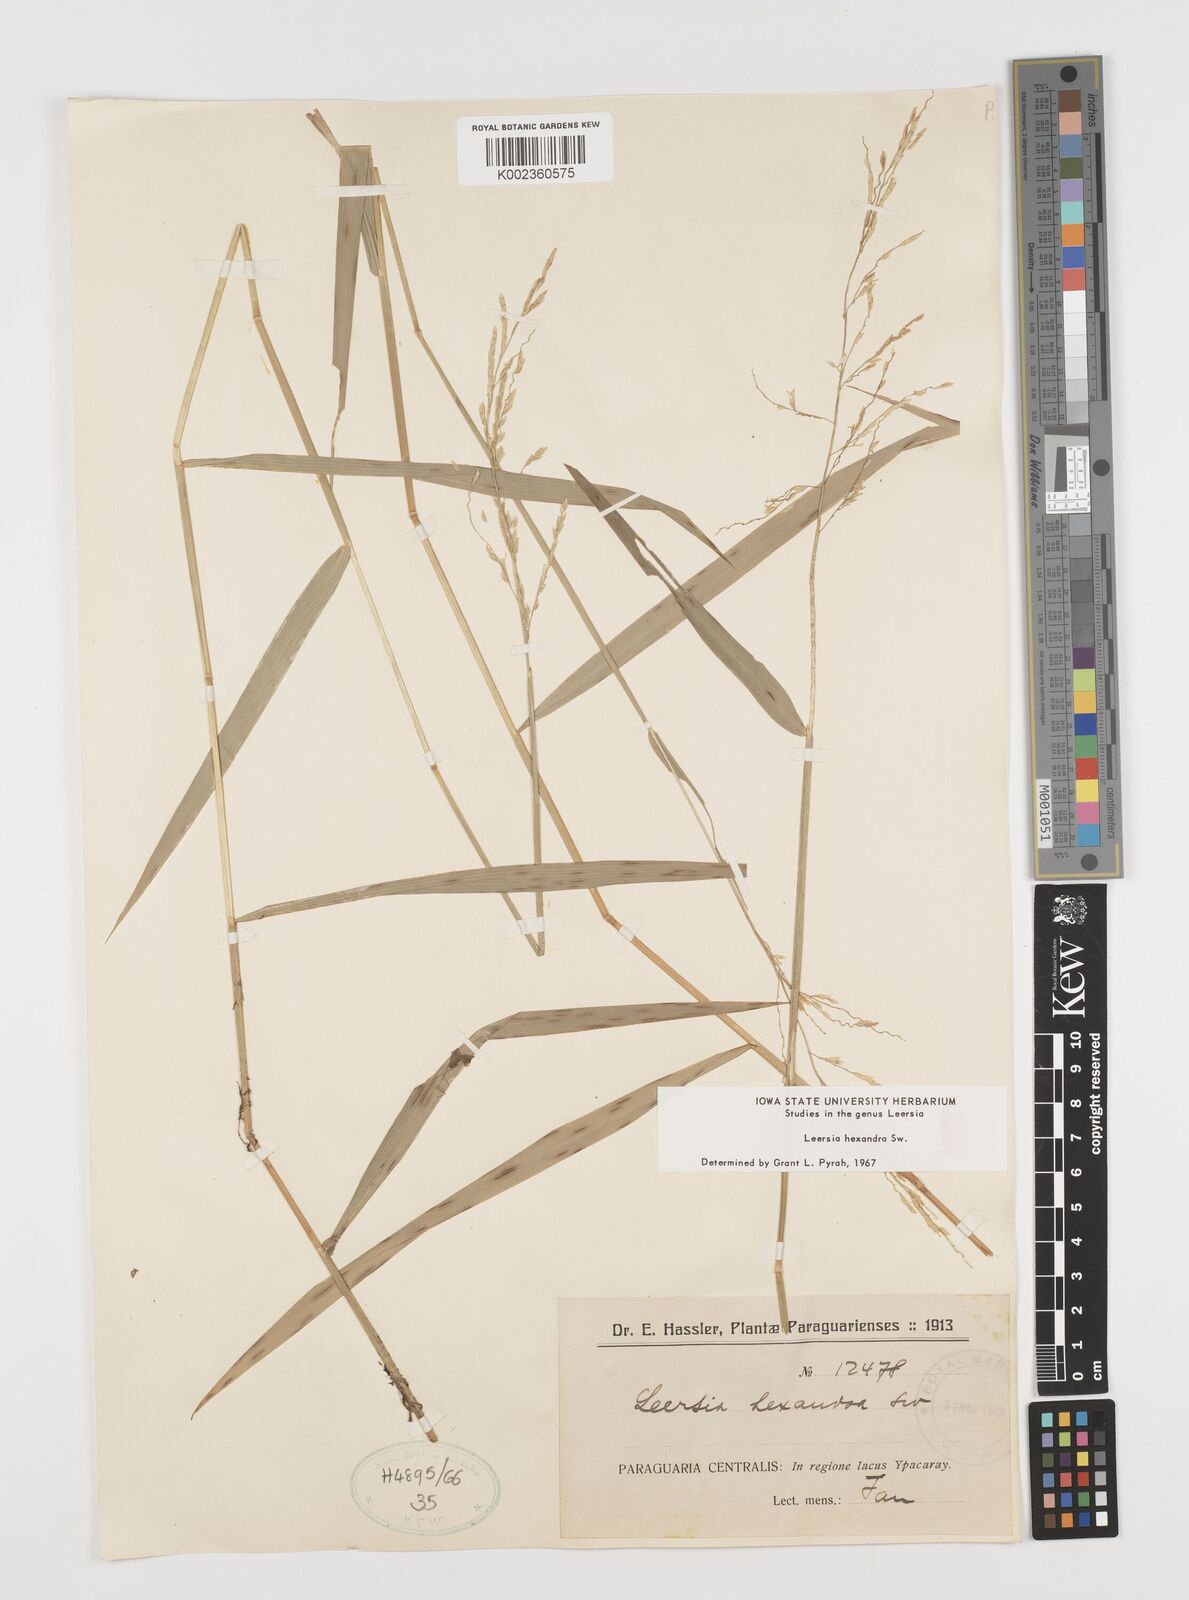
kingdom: Plantae
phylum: Tracheophyta
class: Liliopsida
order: Poales
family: Poaceae
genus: Leersia
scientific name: Leersia hexandra
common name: Southern cut grass
